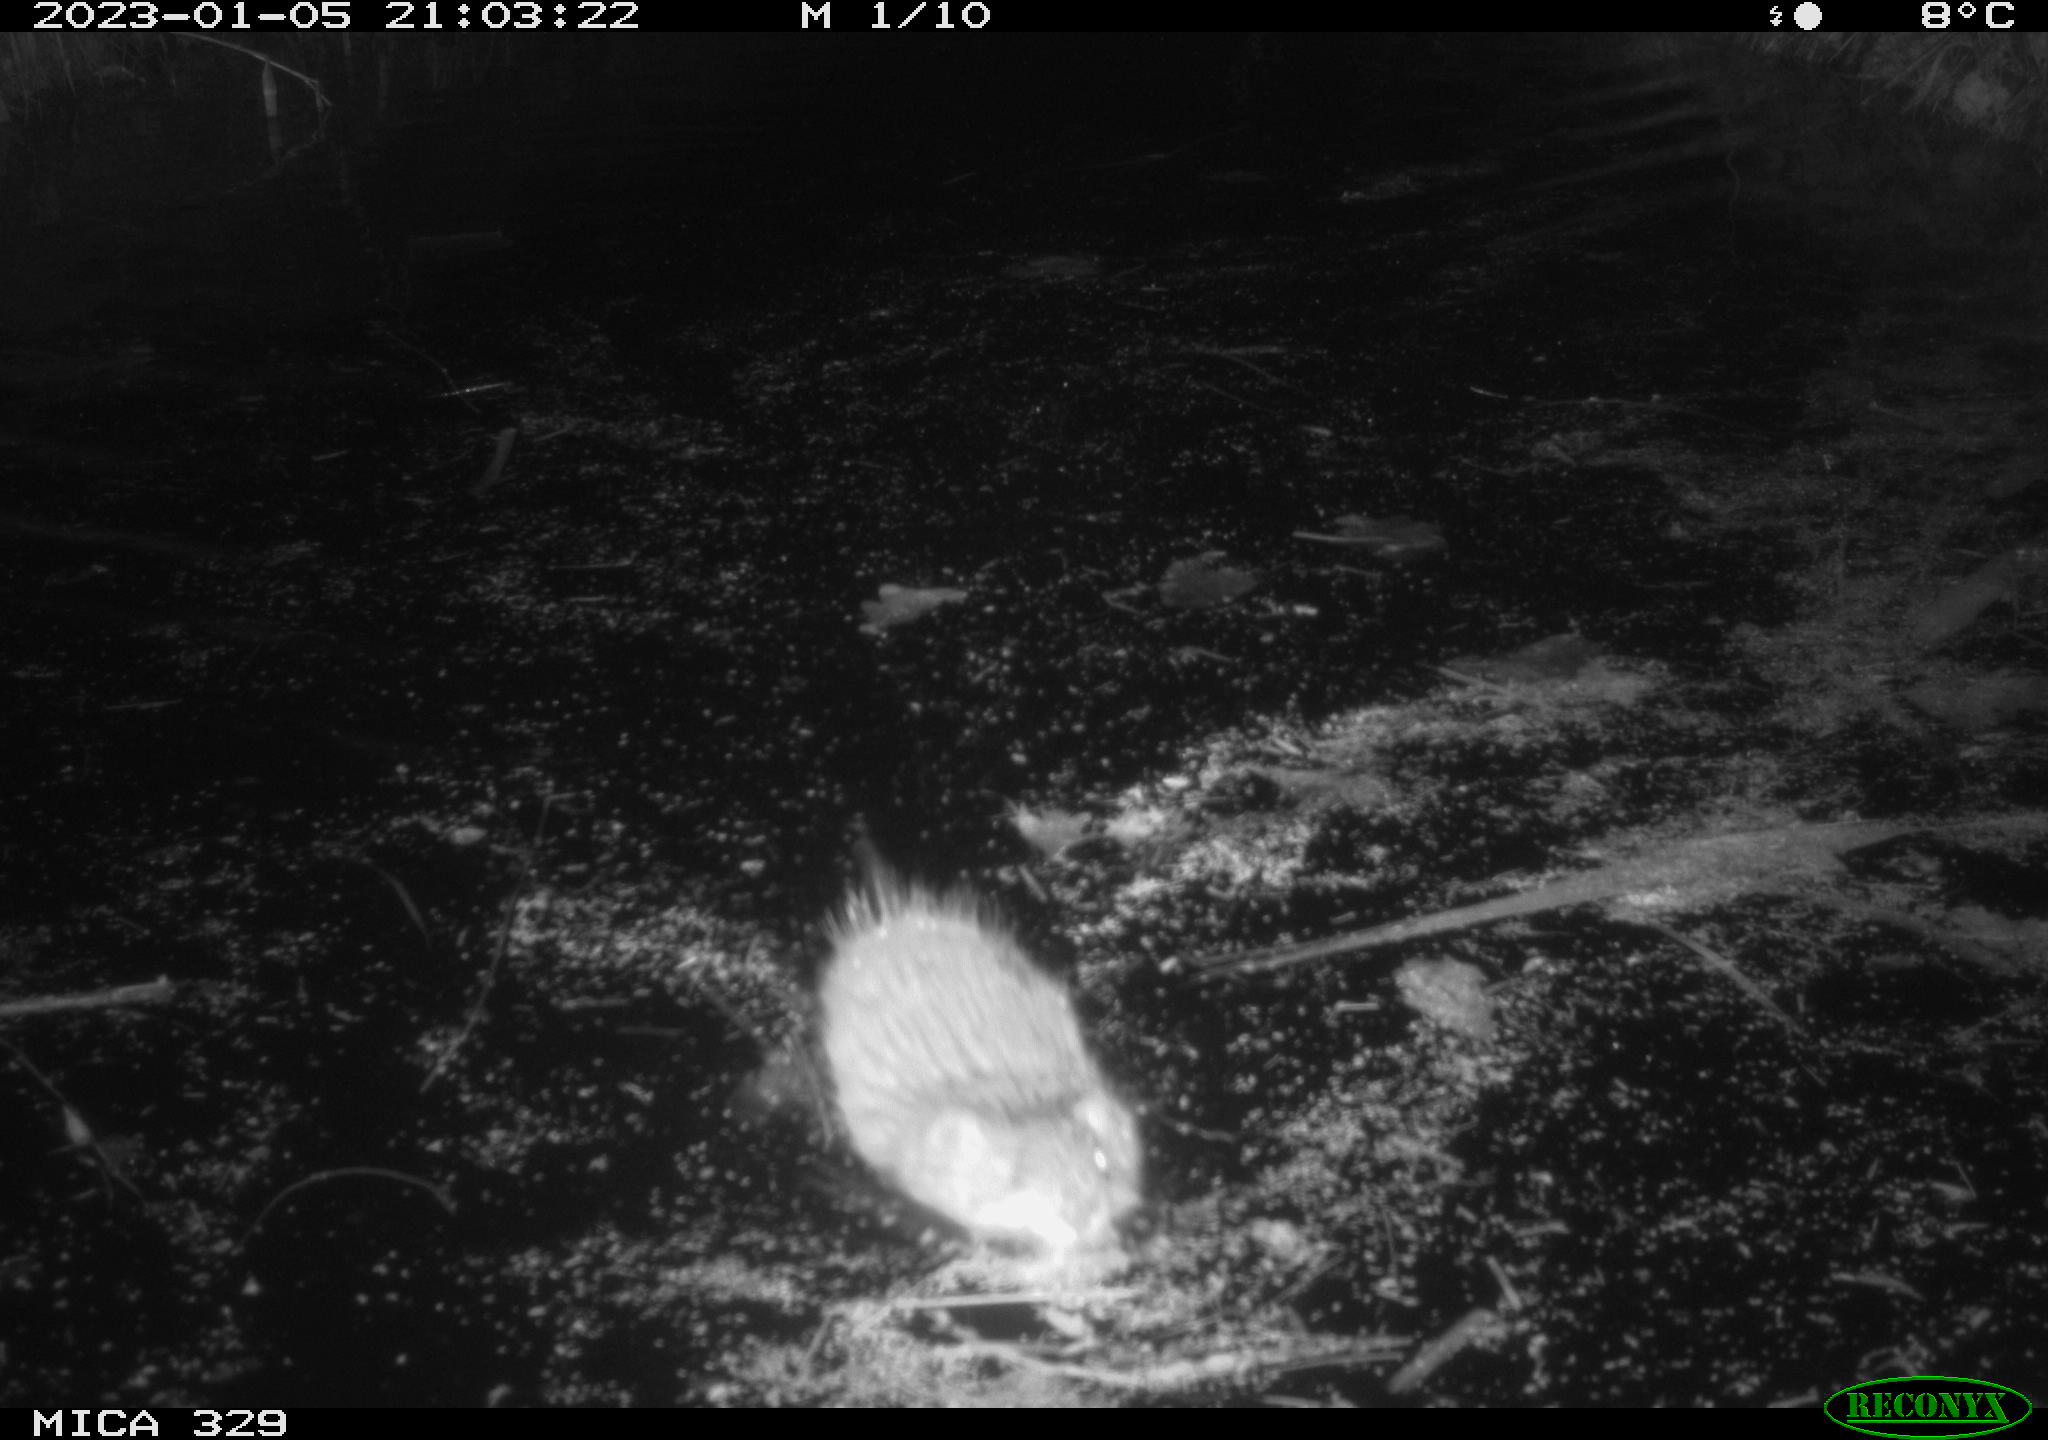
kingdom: Animalia
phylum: Chordata
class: Mammalia
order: Rodentia
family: Cricetidae
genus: Ondatra
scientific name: Ondatra zibethicus
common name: Muskrat
